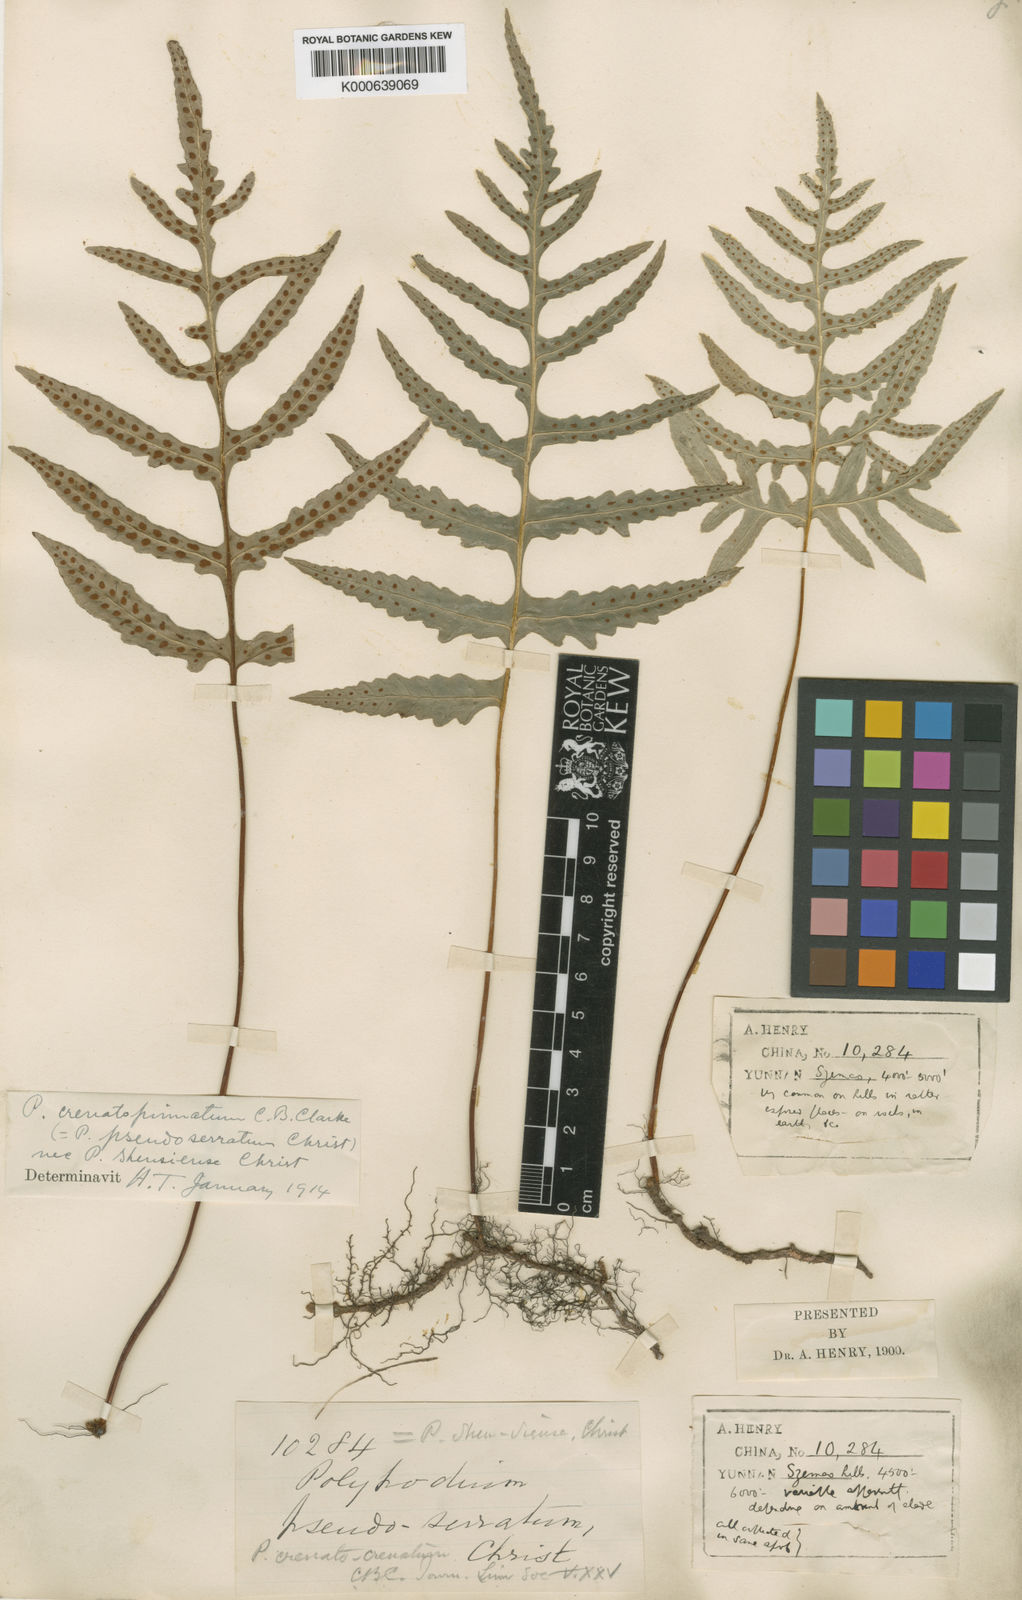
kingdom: Plantae
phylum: Tracheophyta
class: Polypodiopsida
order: Polypodiales
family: Polypodiaceae
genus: Selliguea
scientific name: Selliguea crenatopinnata
